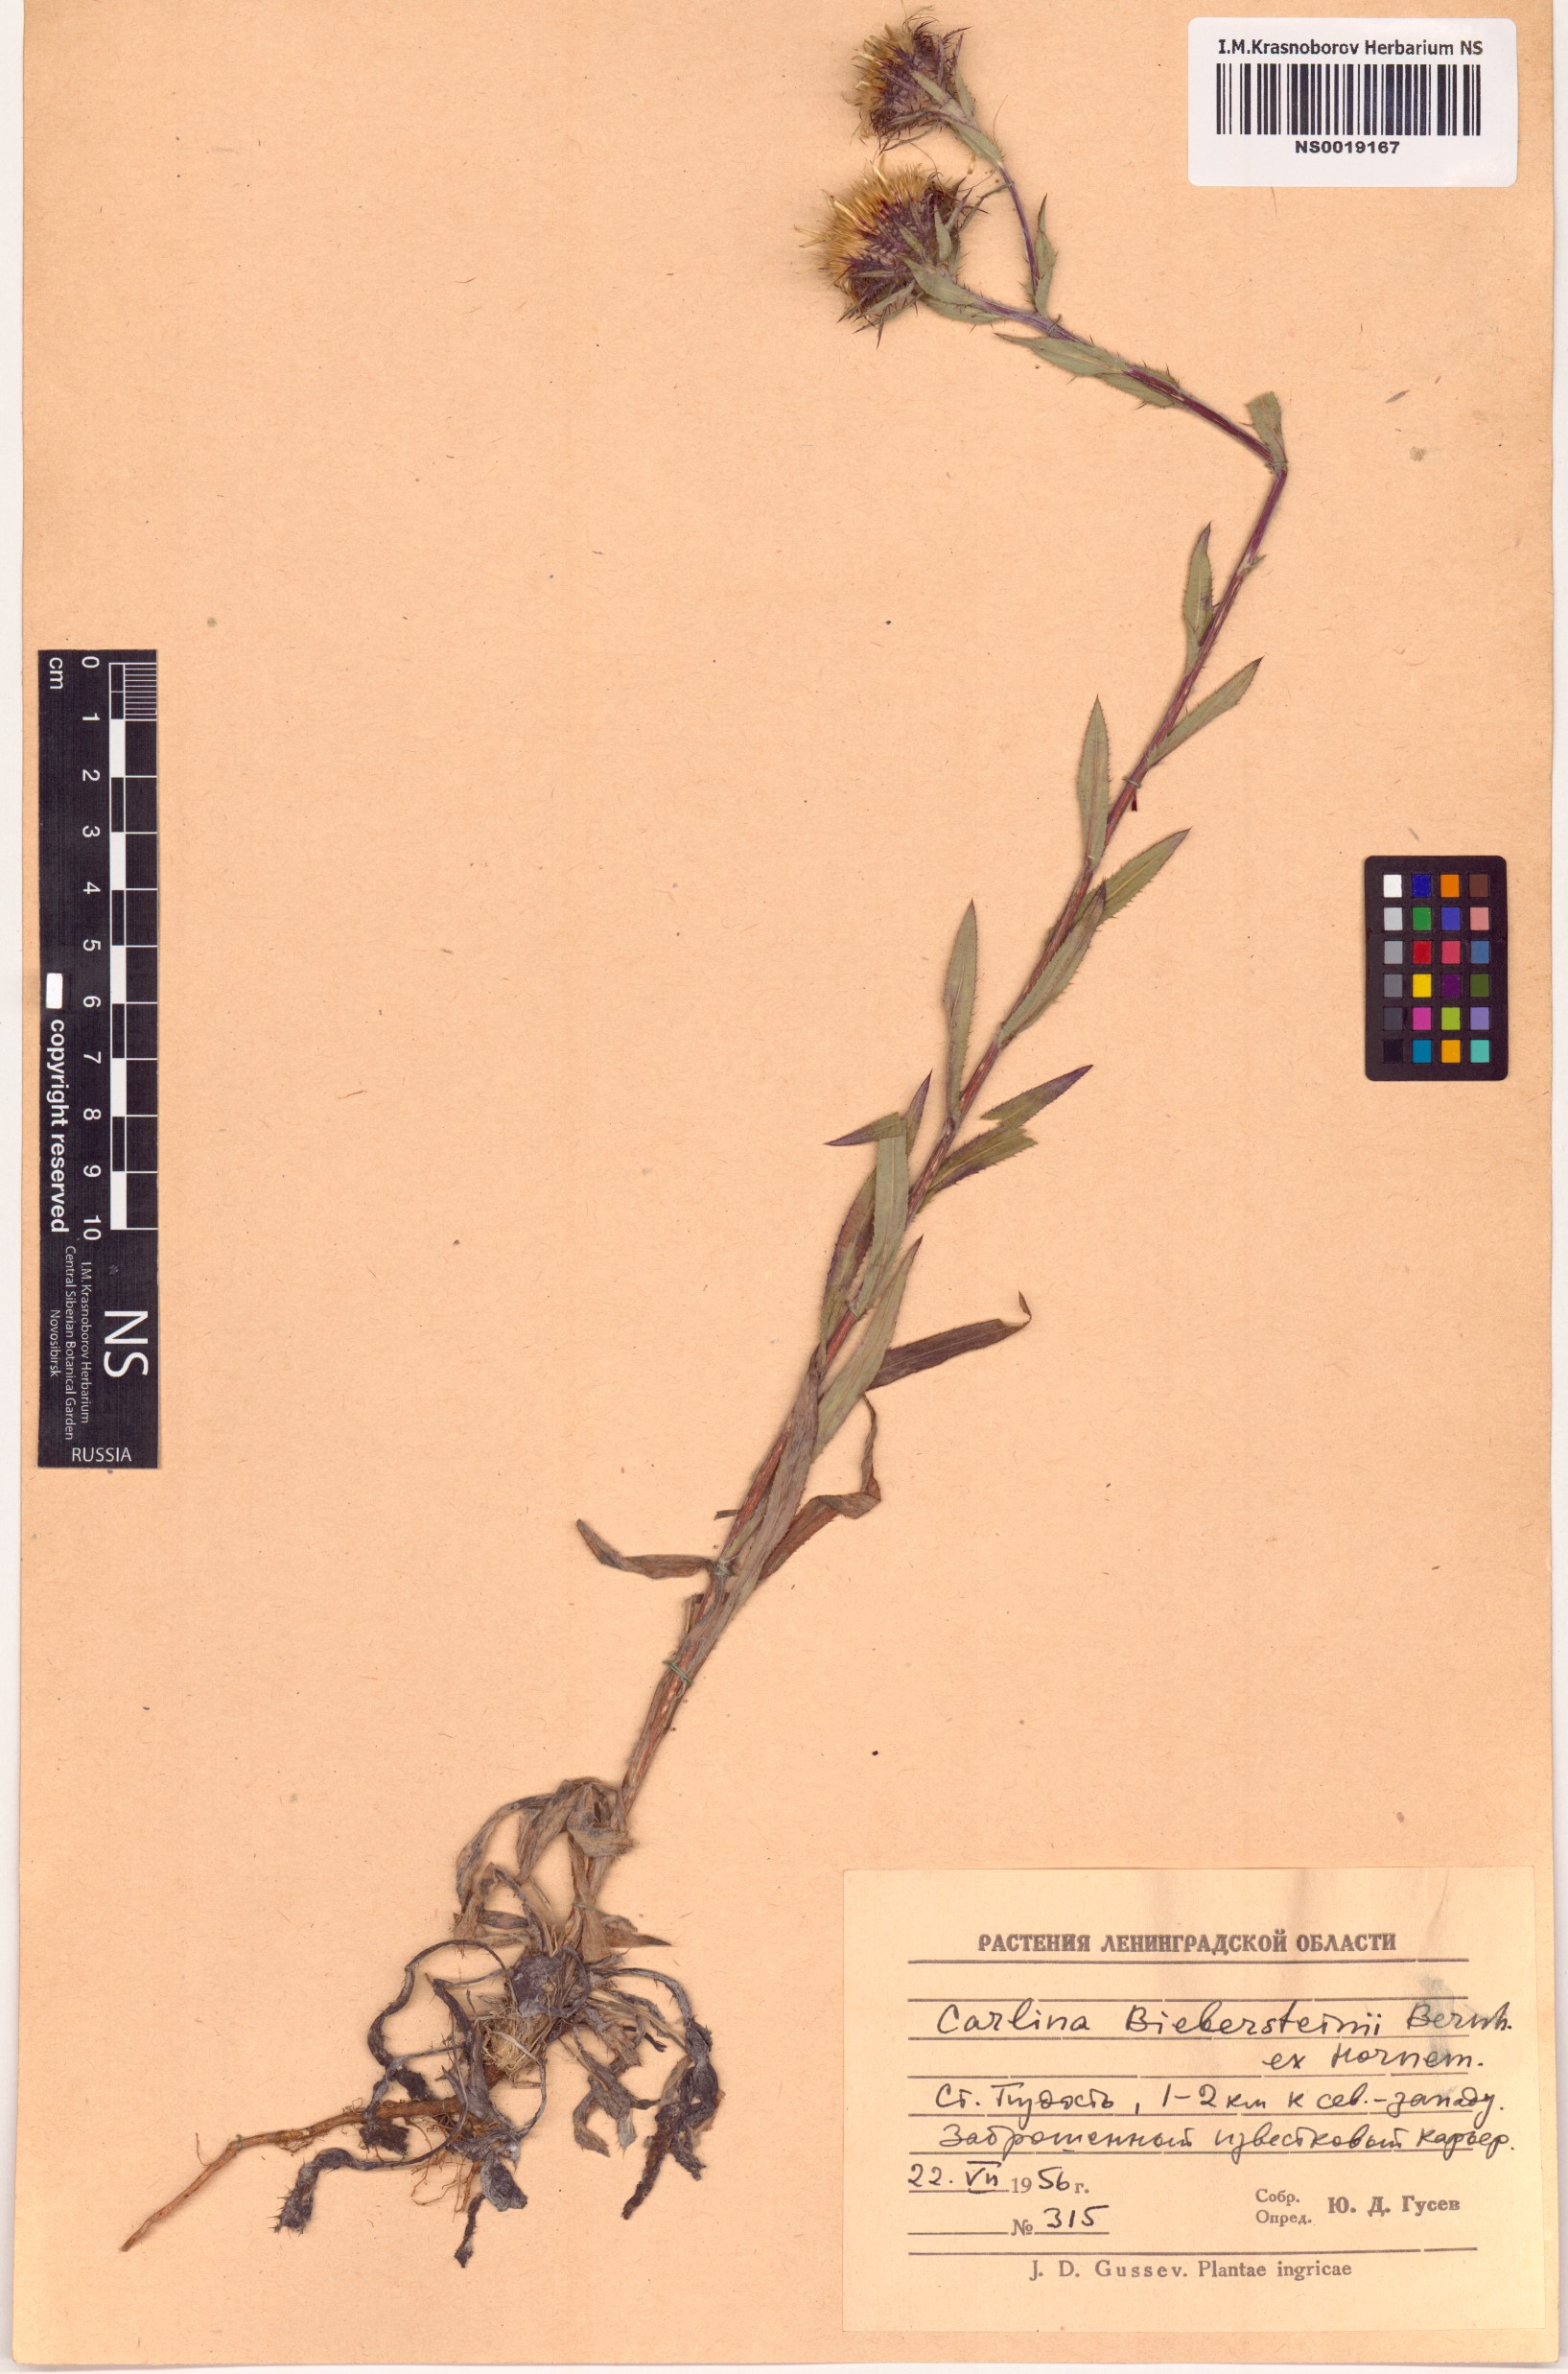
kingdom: Plantae
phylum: Tracheophyta
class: Magnoliopsida
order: Asterales
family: Asteraceae
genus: Carlina
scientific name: Carlina biebersteinii
